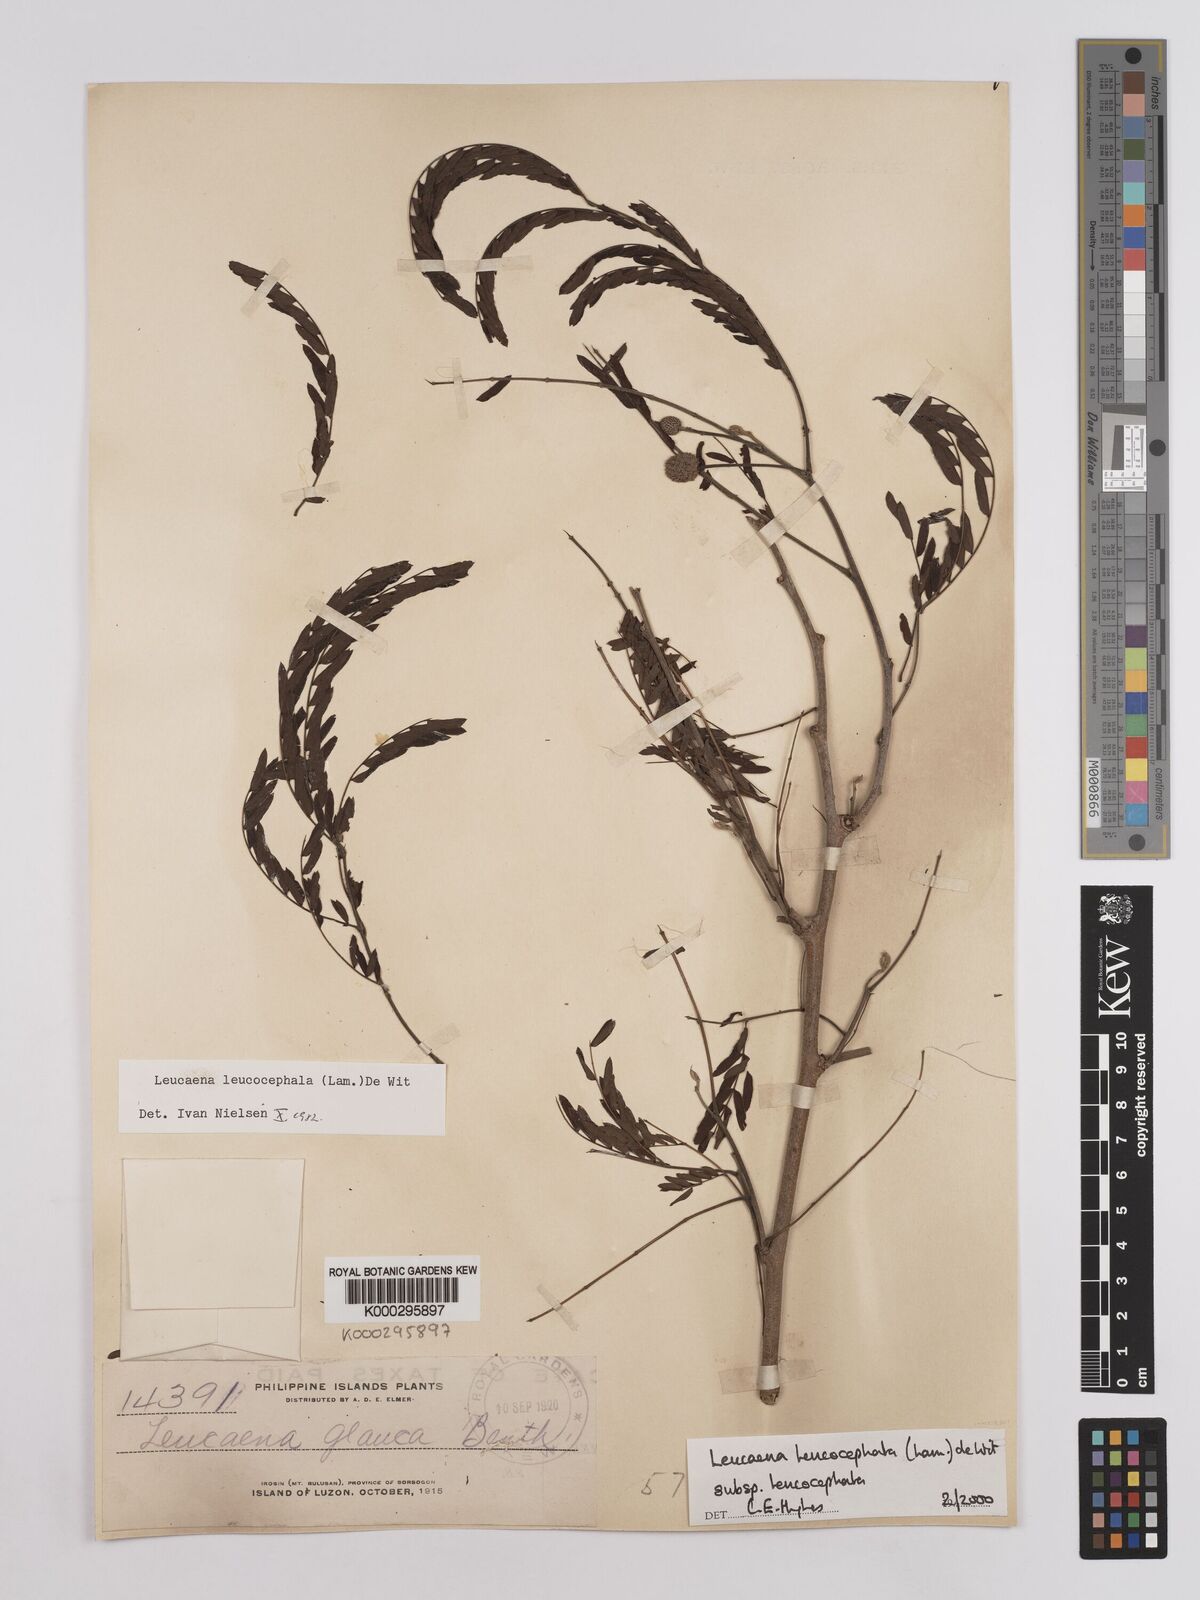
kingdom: Plantae
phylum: Tracheophyta
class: Magnoliopsida
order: Fabales
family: Fabaceae
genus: Leucaena
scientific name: Leucaena leucocephala
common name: White leadtree
